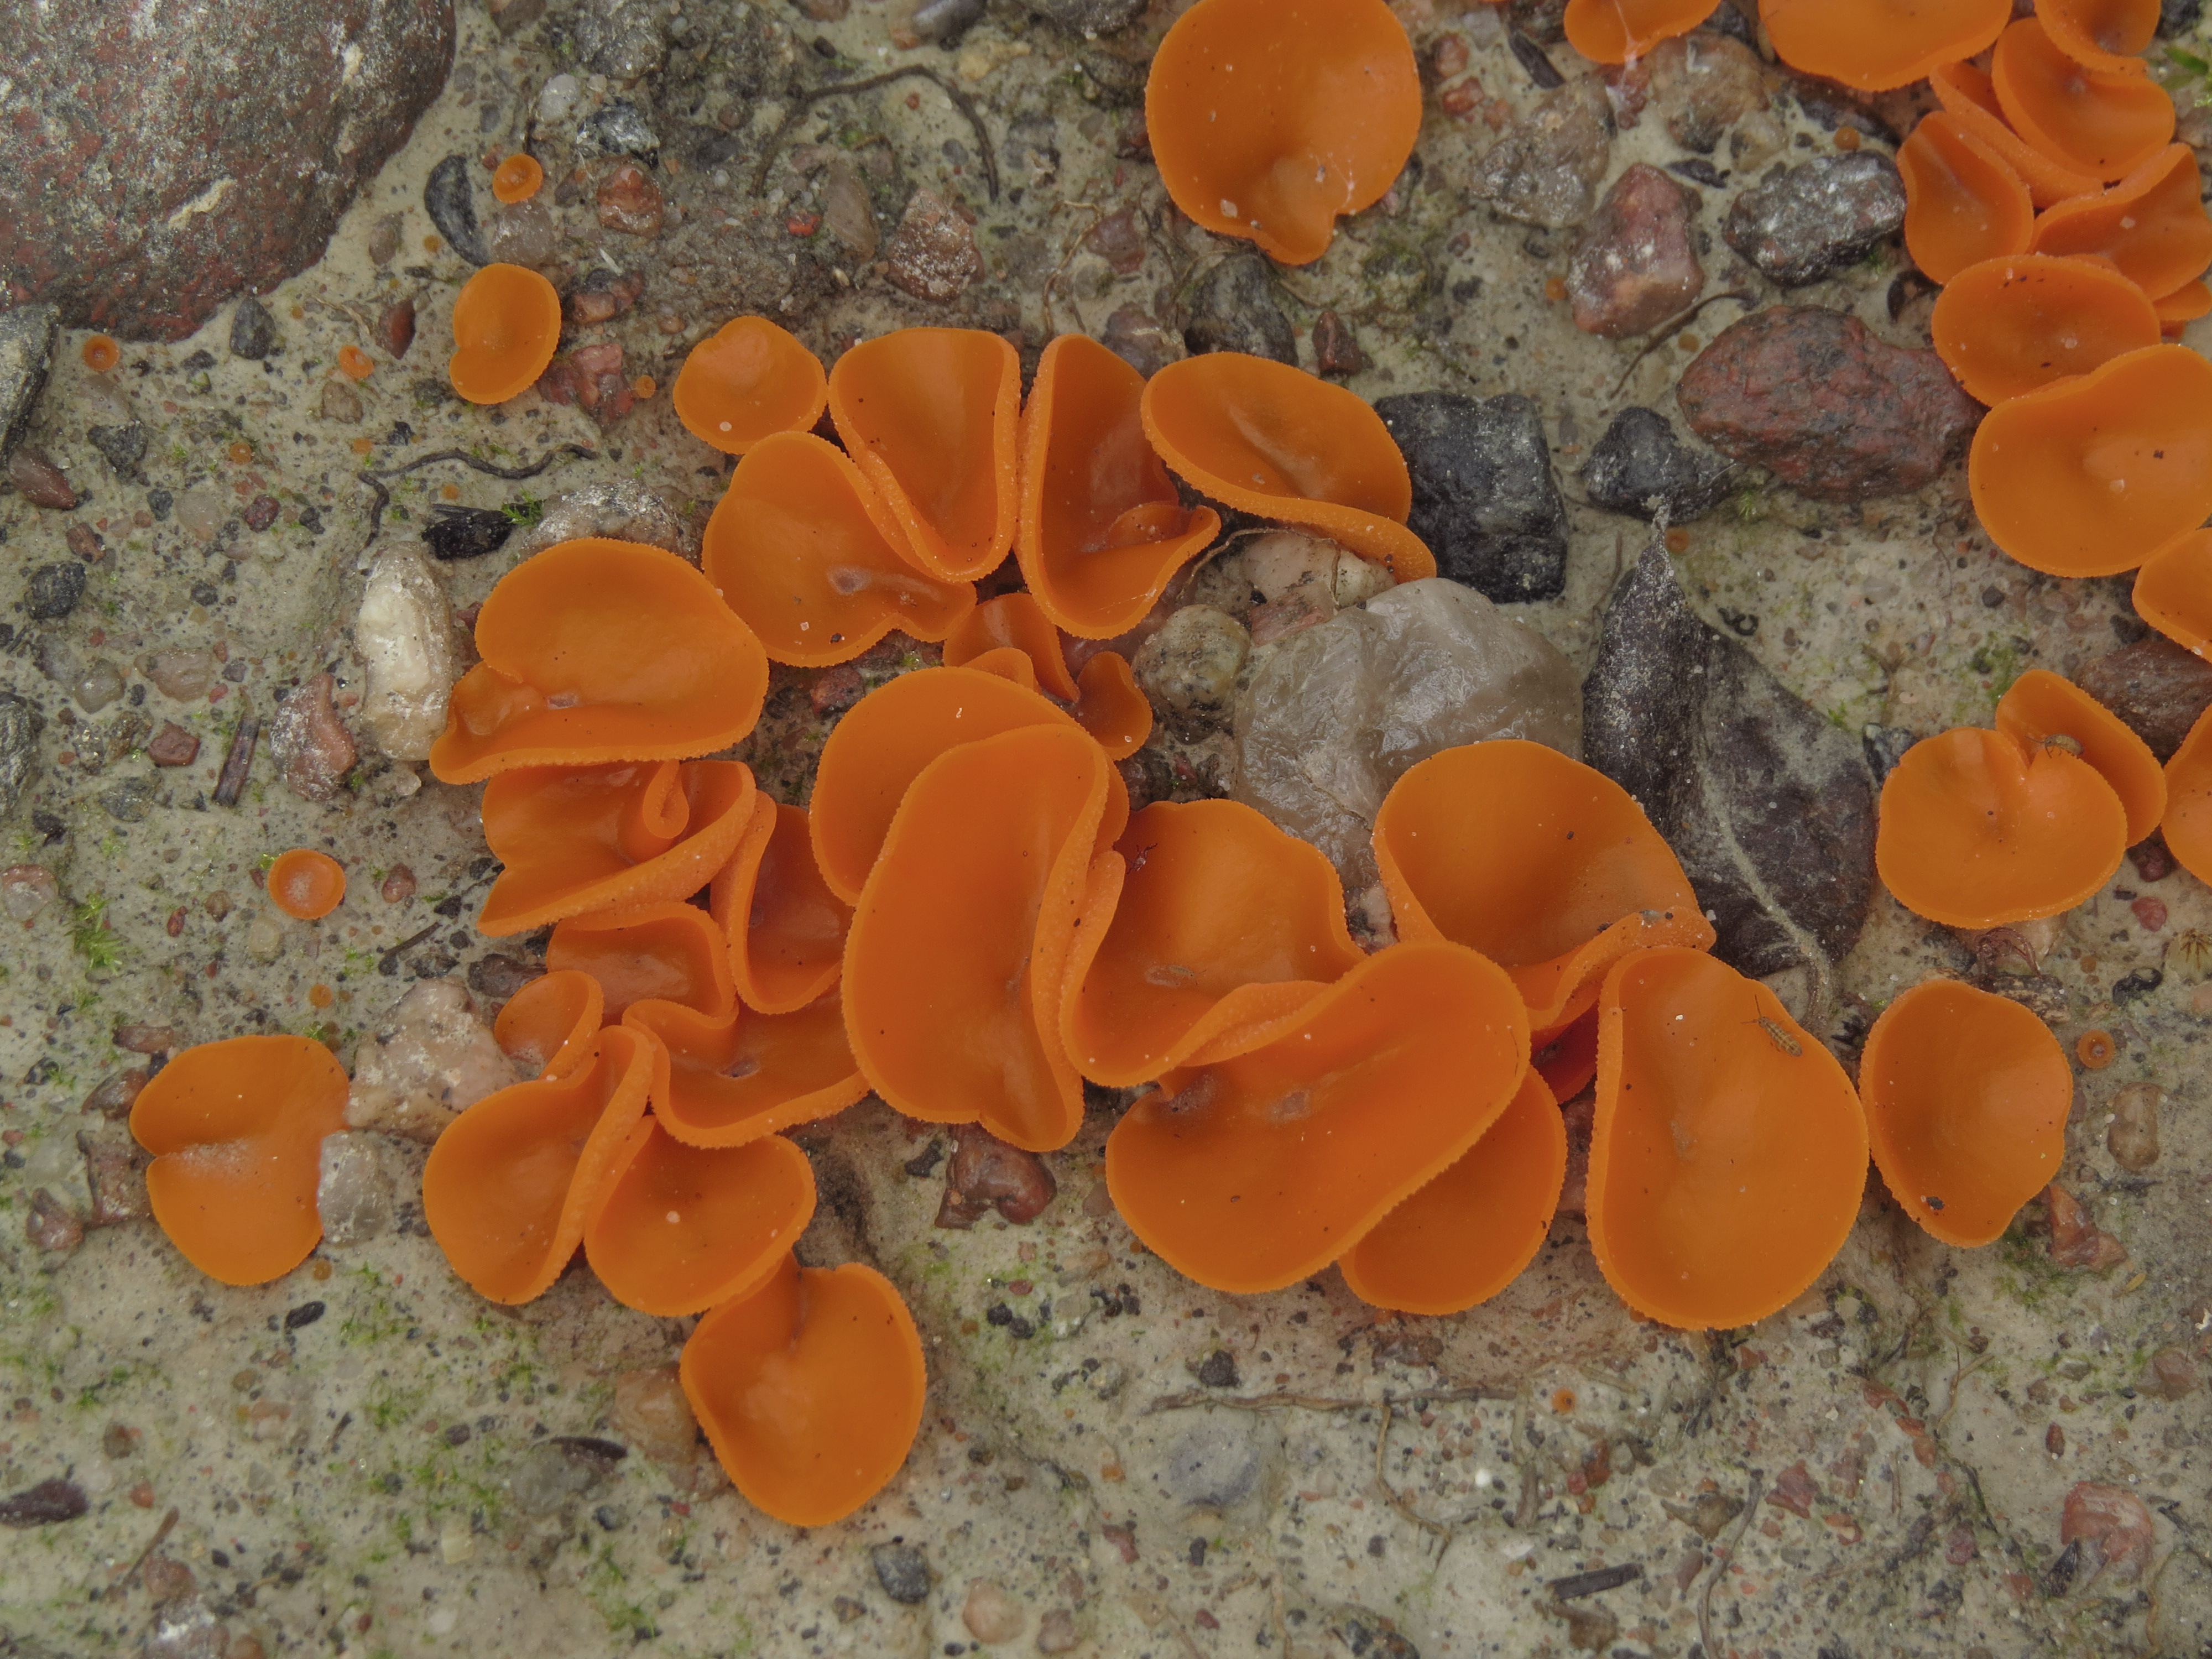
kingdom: Fungi
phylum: Ascomycota
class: Pezizomycetes
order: Pezizales
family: Pyronemataceae
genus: Aleuria
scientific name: Aleuria aurantia
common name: Orange peel fungus
